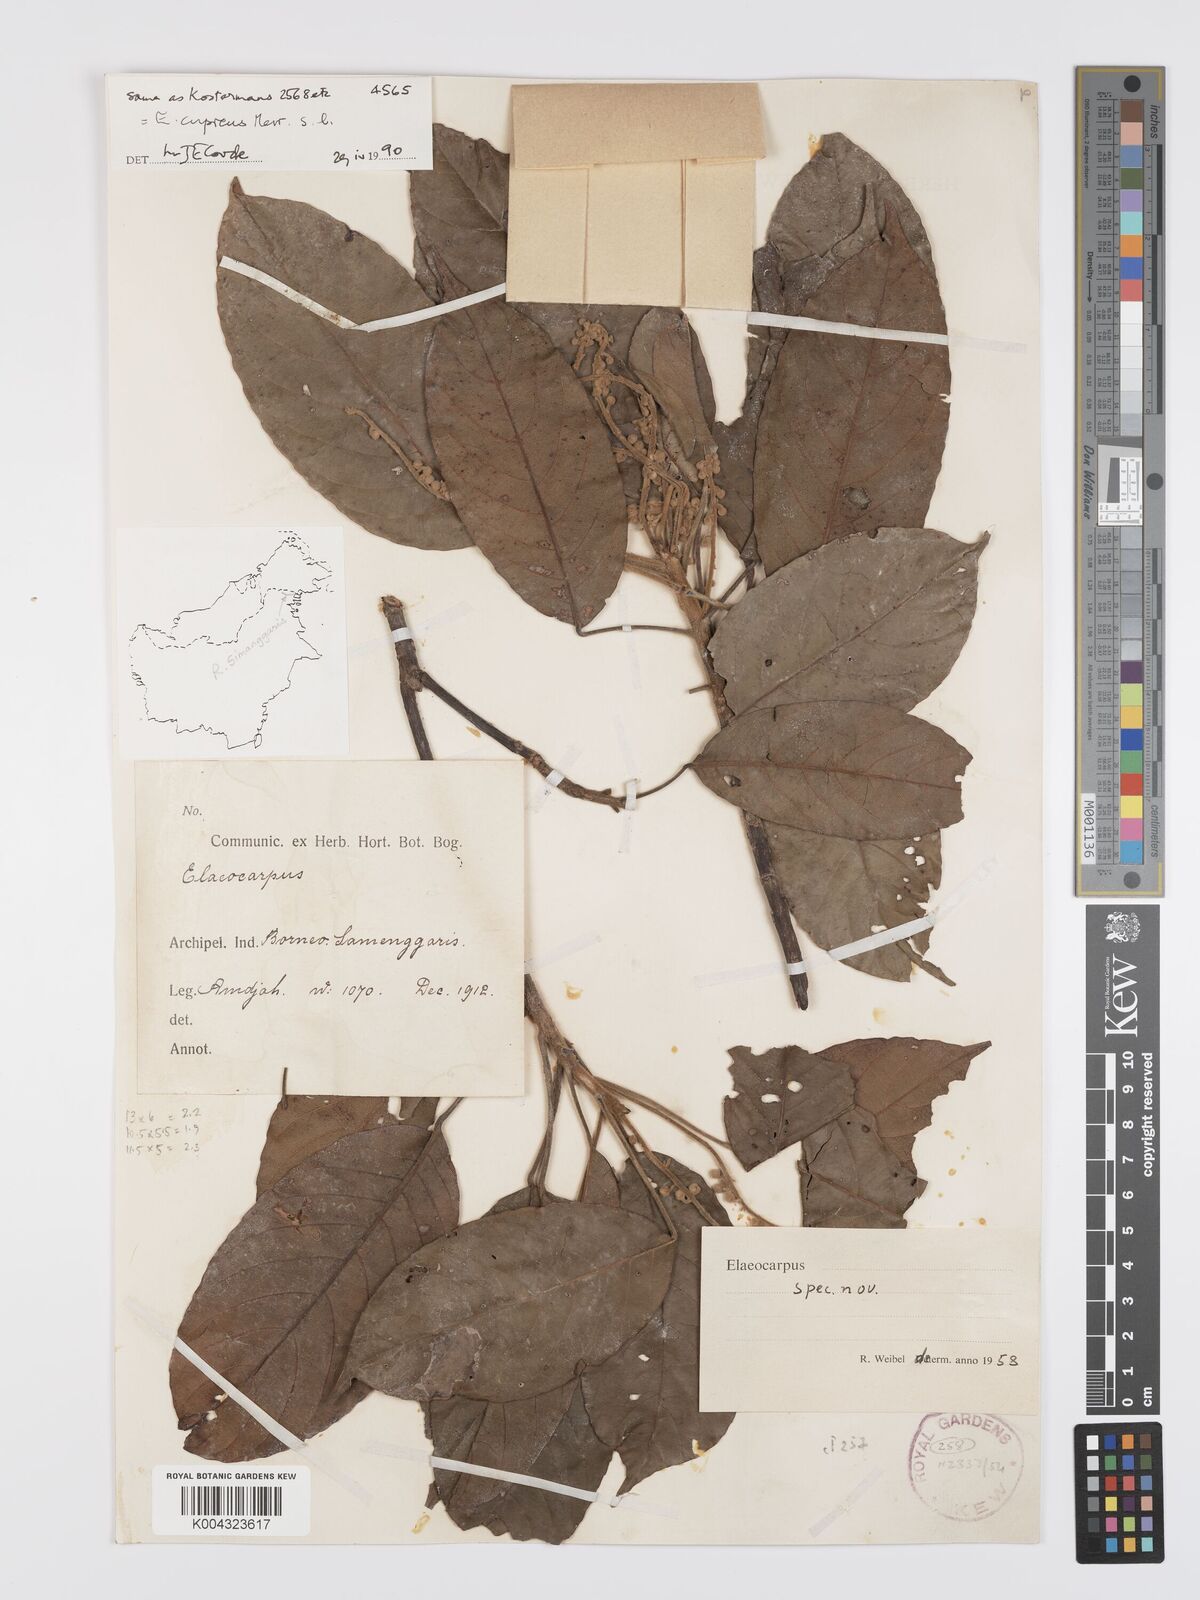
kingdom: Plantae
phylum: Tracheophyta
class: Magnoliopsida
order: Oxalidales
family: Elaeocarpaceae
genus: Elaeocarpus
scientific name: Elaeocarpus cupreus
